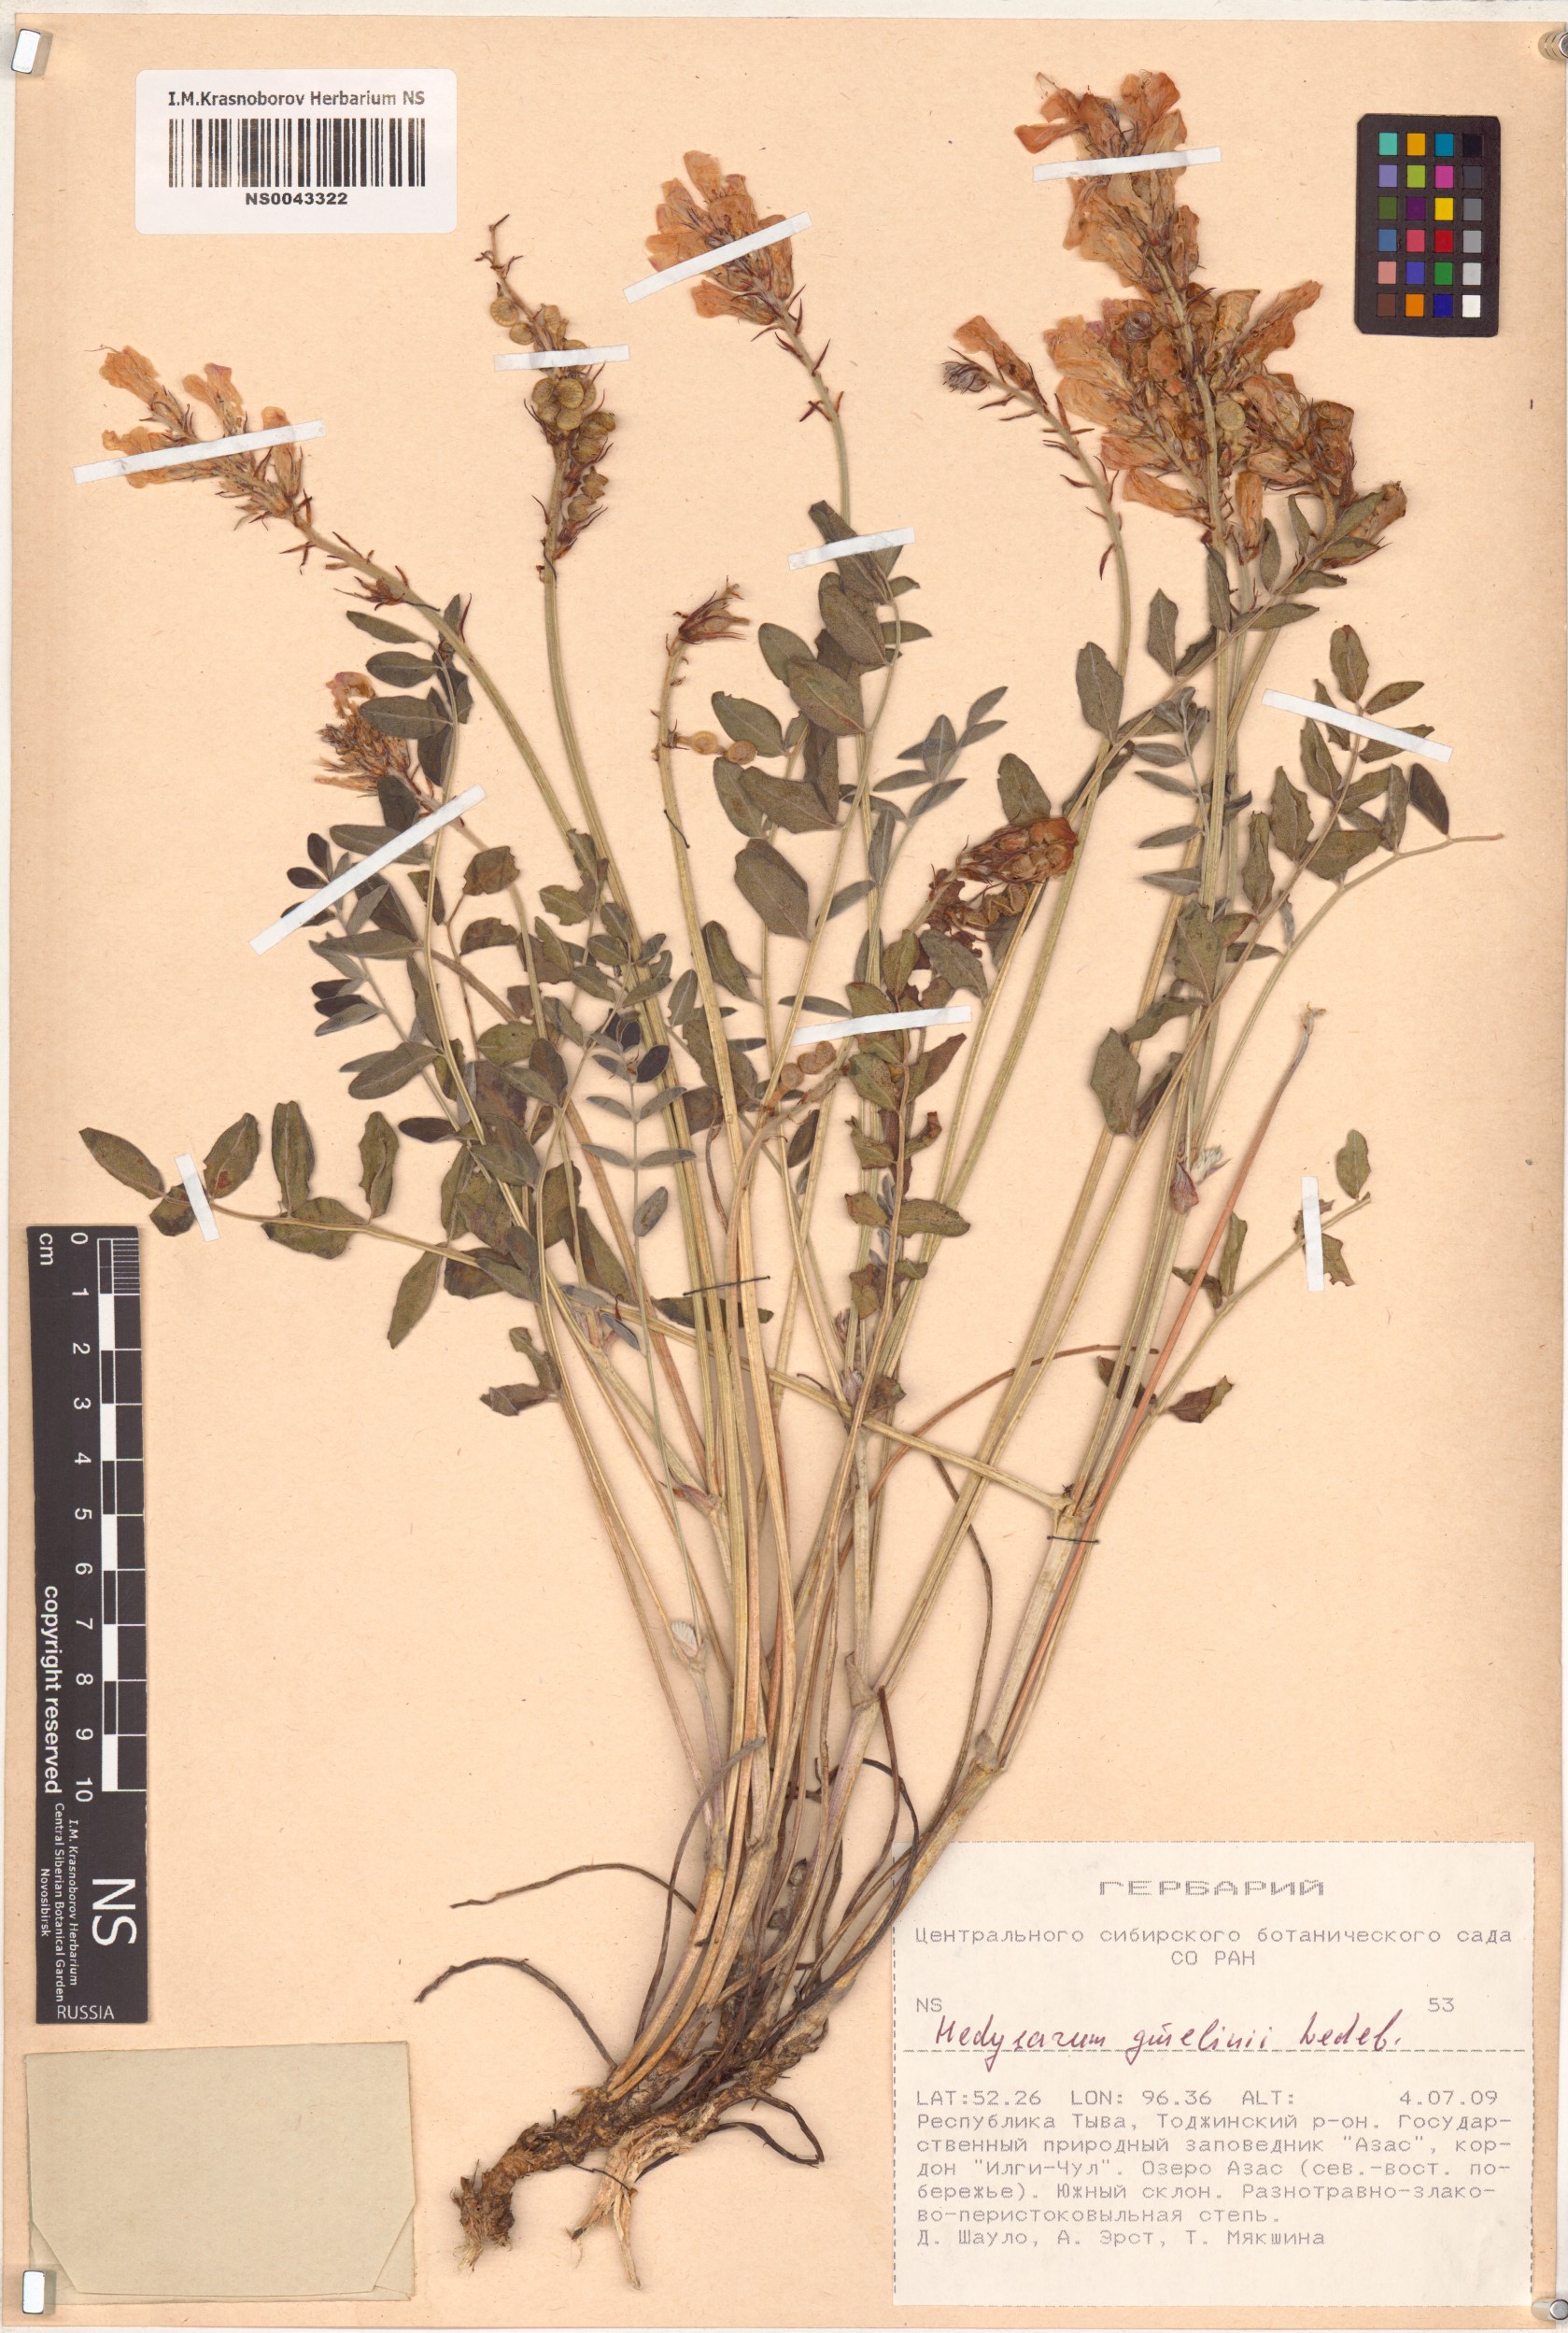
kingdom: Plantae
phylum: Tracheophyta
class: Magnoliopsida
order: Fabales
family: Fabaceae
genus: Hedysarum
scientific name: Hedysarum gmelinii
